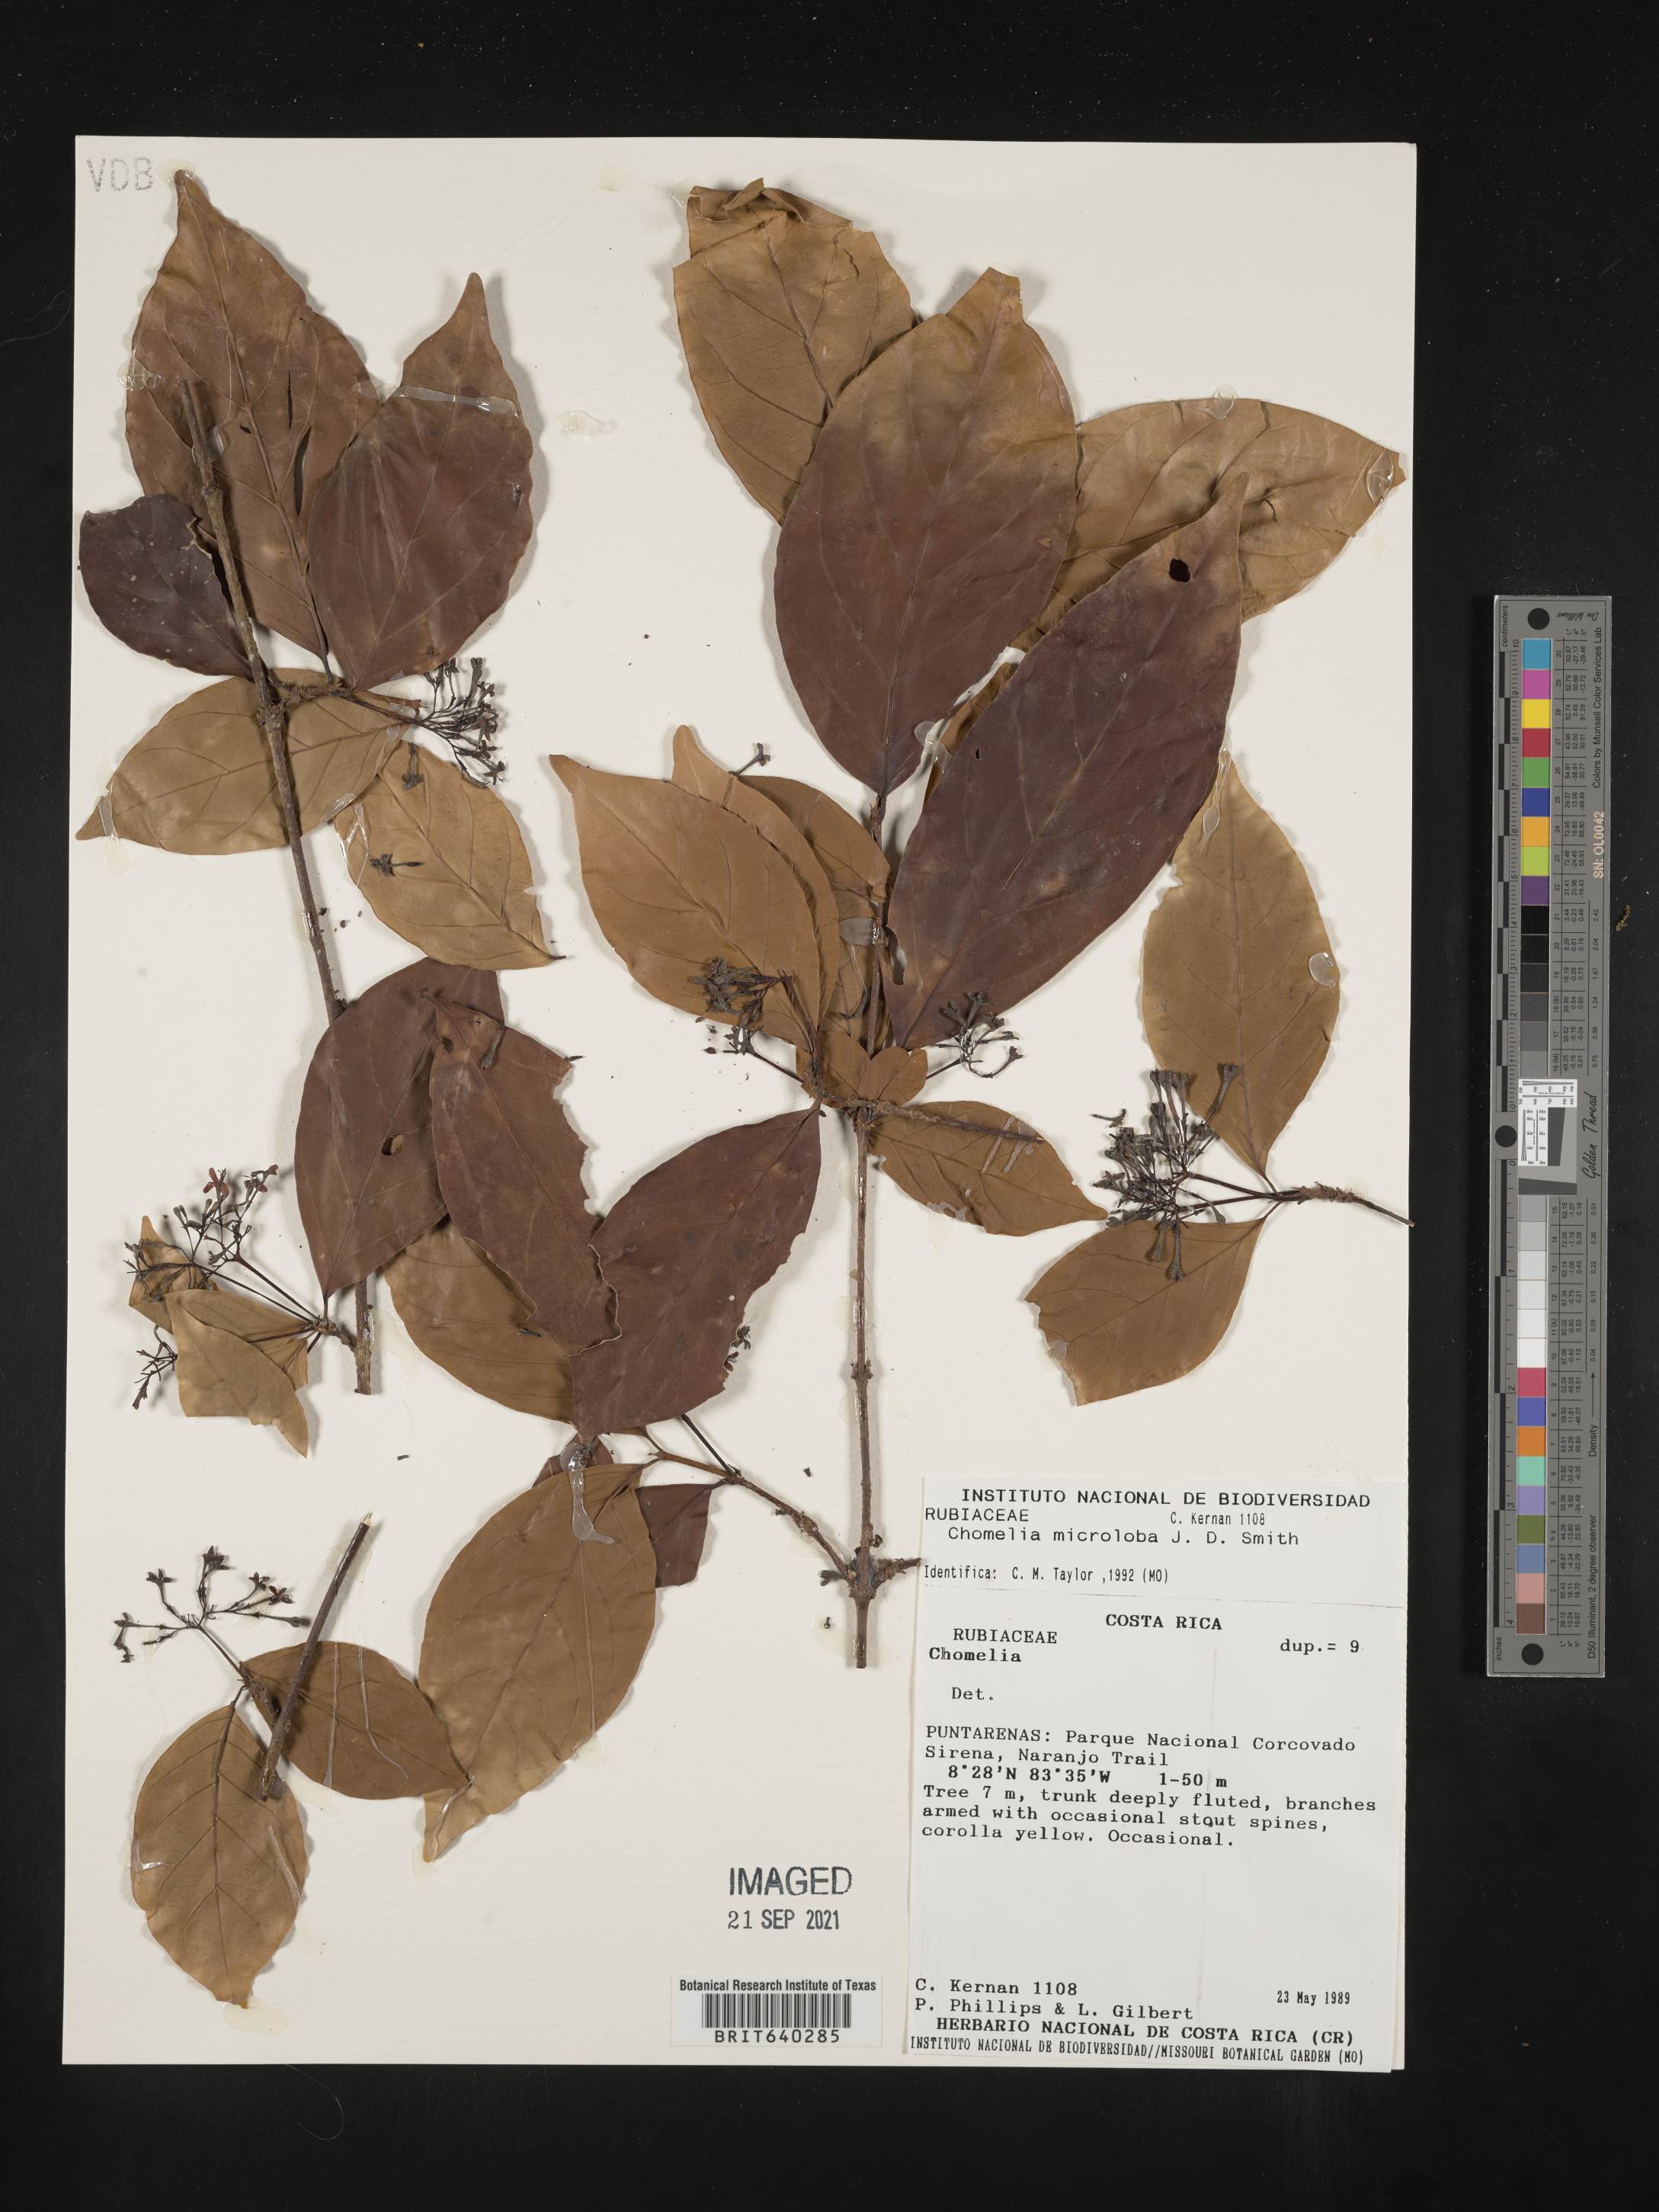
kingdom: Plantae
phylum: Tracheophyta
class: Magnoliopsida
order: Gentianales
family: Rubiaceae
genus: Chomelia
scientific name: Chomelia
